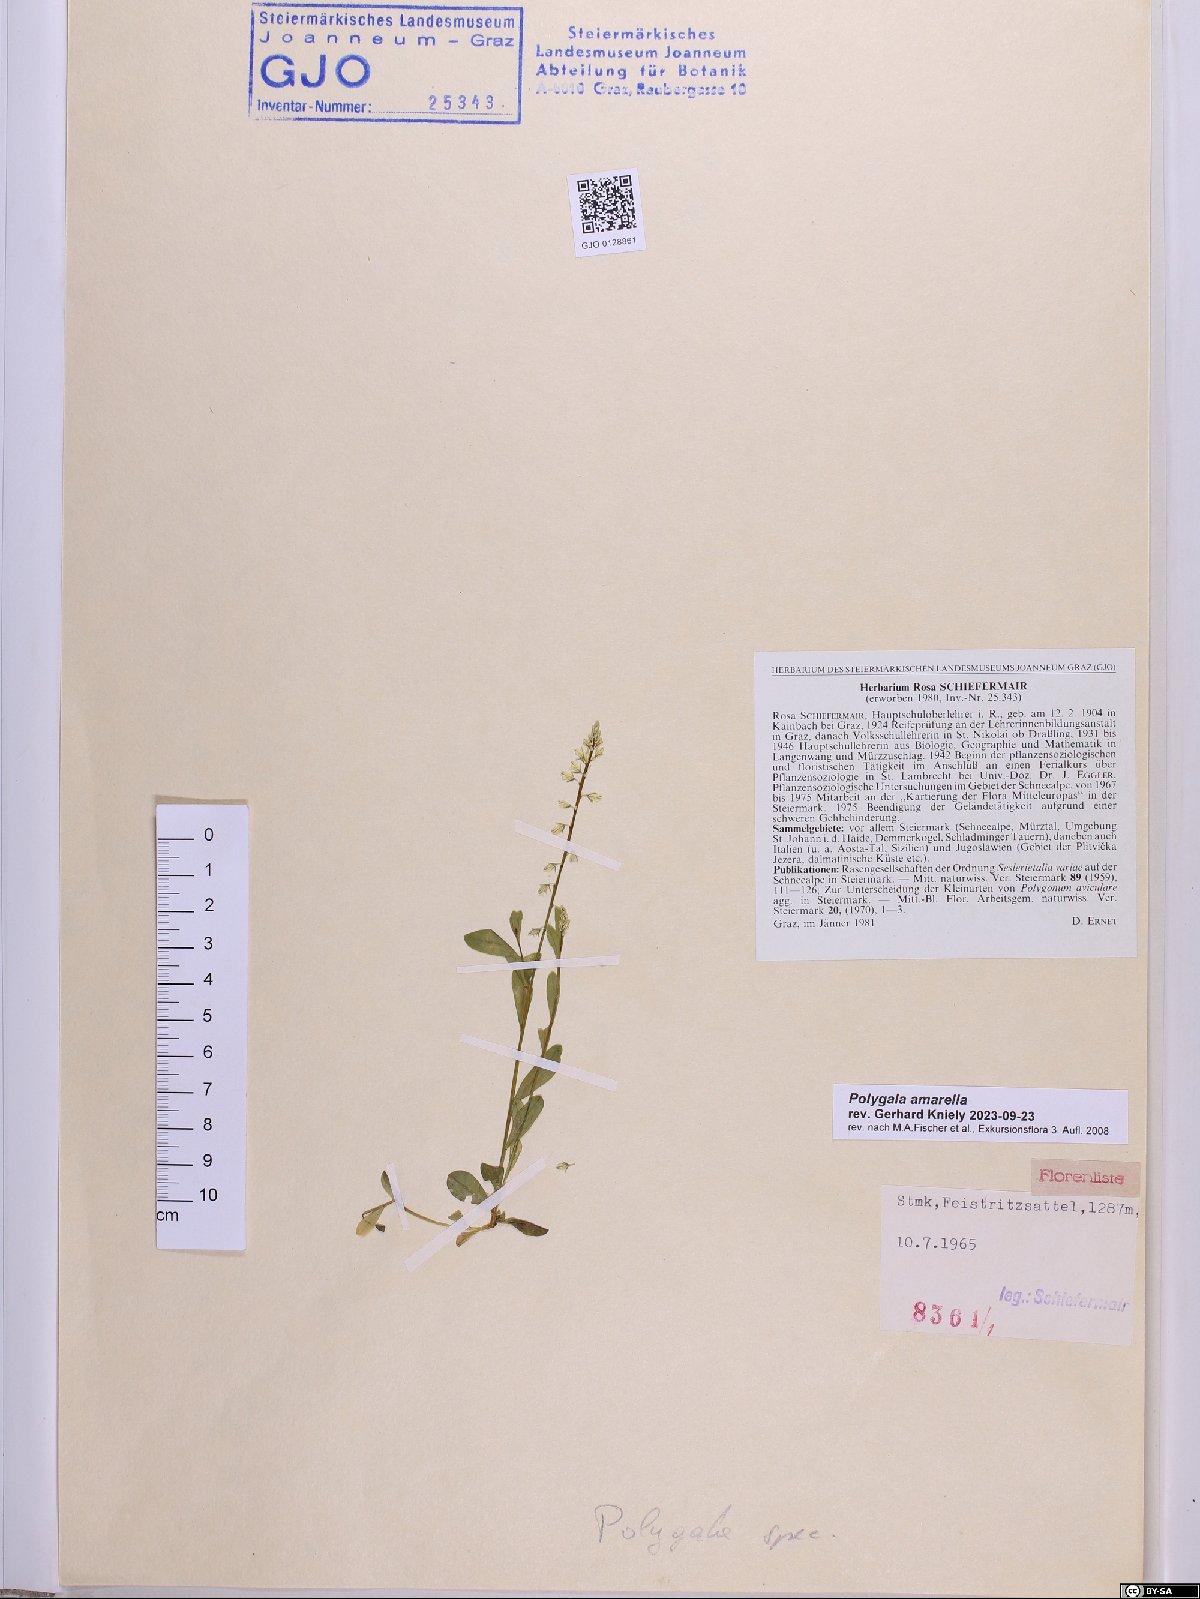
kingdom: Plantae
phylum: Tracheophyta
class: Magnoliopsida
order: Fabales
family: Polygalaceae
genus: Polygala
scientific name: Polygala amarella
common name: Dwarf milkwort
